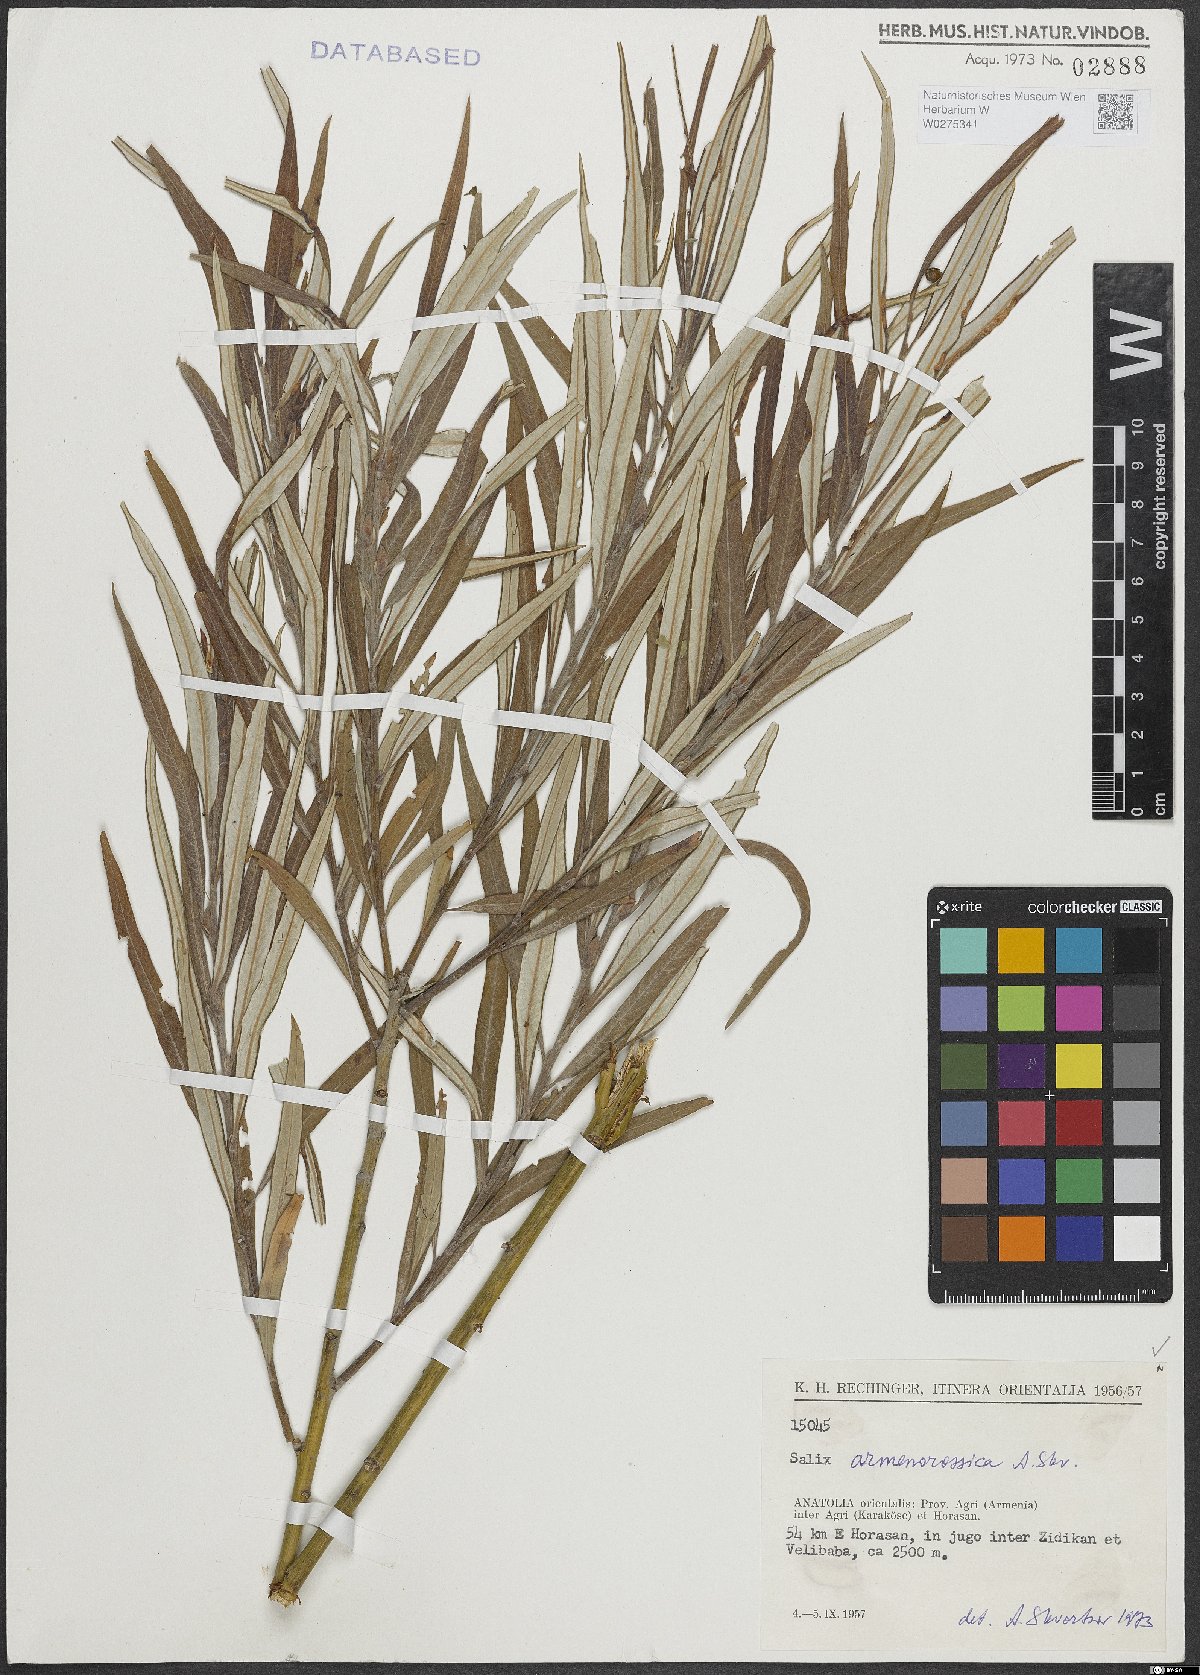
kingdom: Plantae
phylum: Tracheophyta
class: Magnoliopsida
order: Malpighiales
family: Salicaceae
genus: Salix
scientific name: Salix viminalis
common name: Osier
